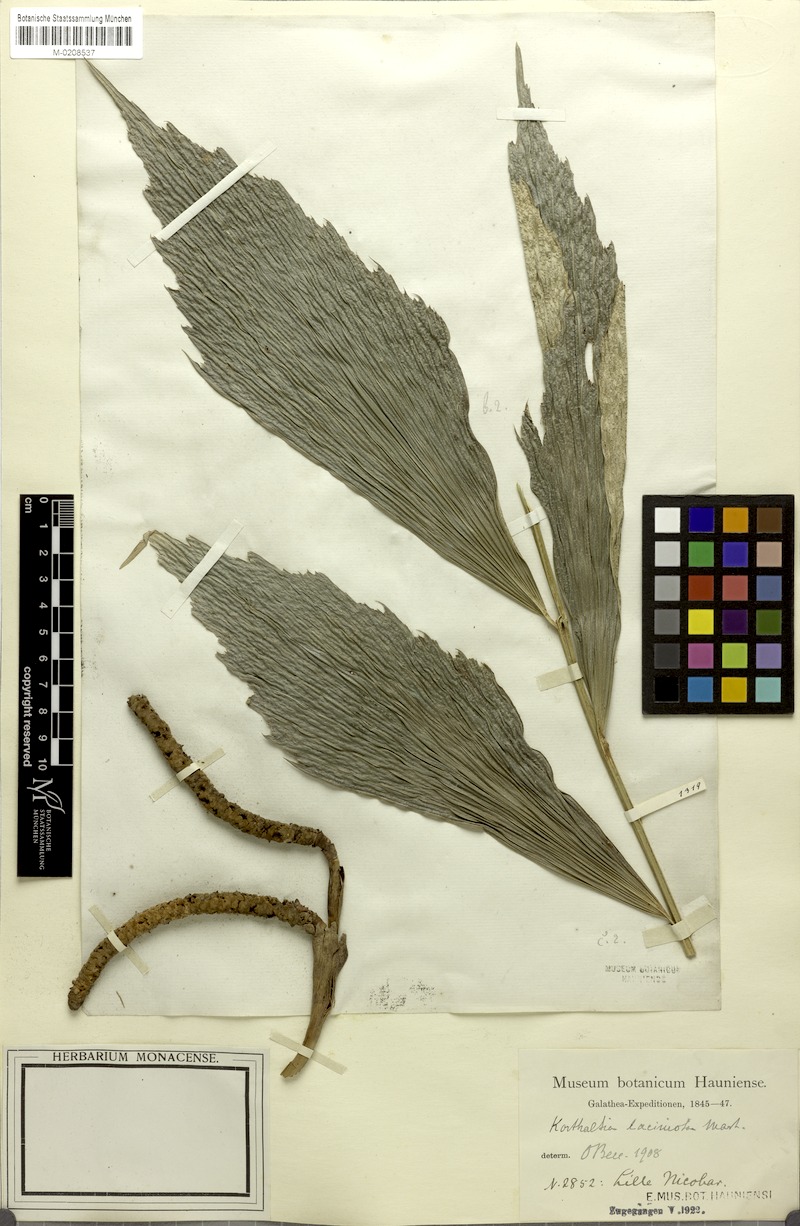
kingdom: Plantae
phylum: Tracheophyta
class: Liliopsida
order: Arecales
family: Arecaceae
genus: Korthalsia
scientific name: Korthalsia laciniosa
